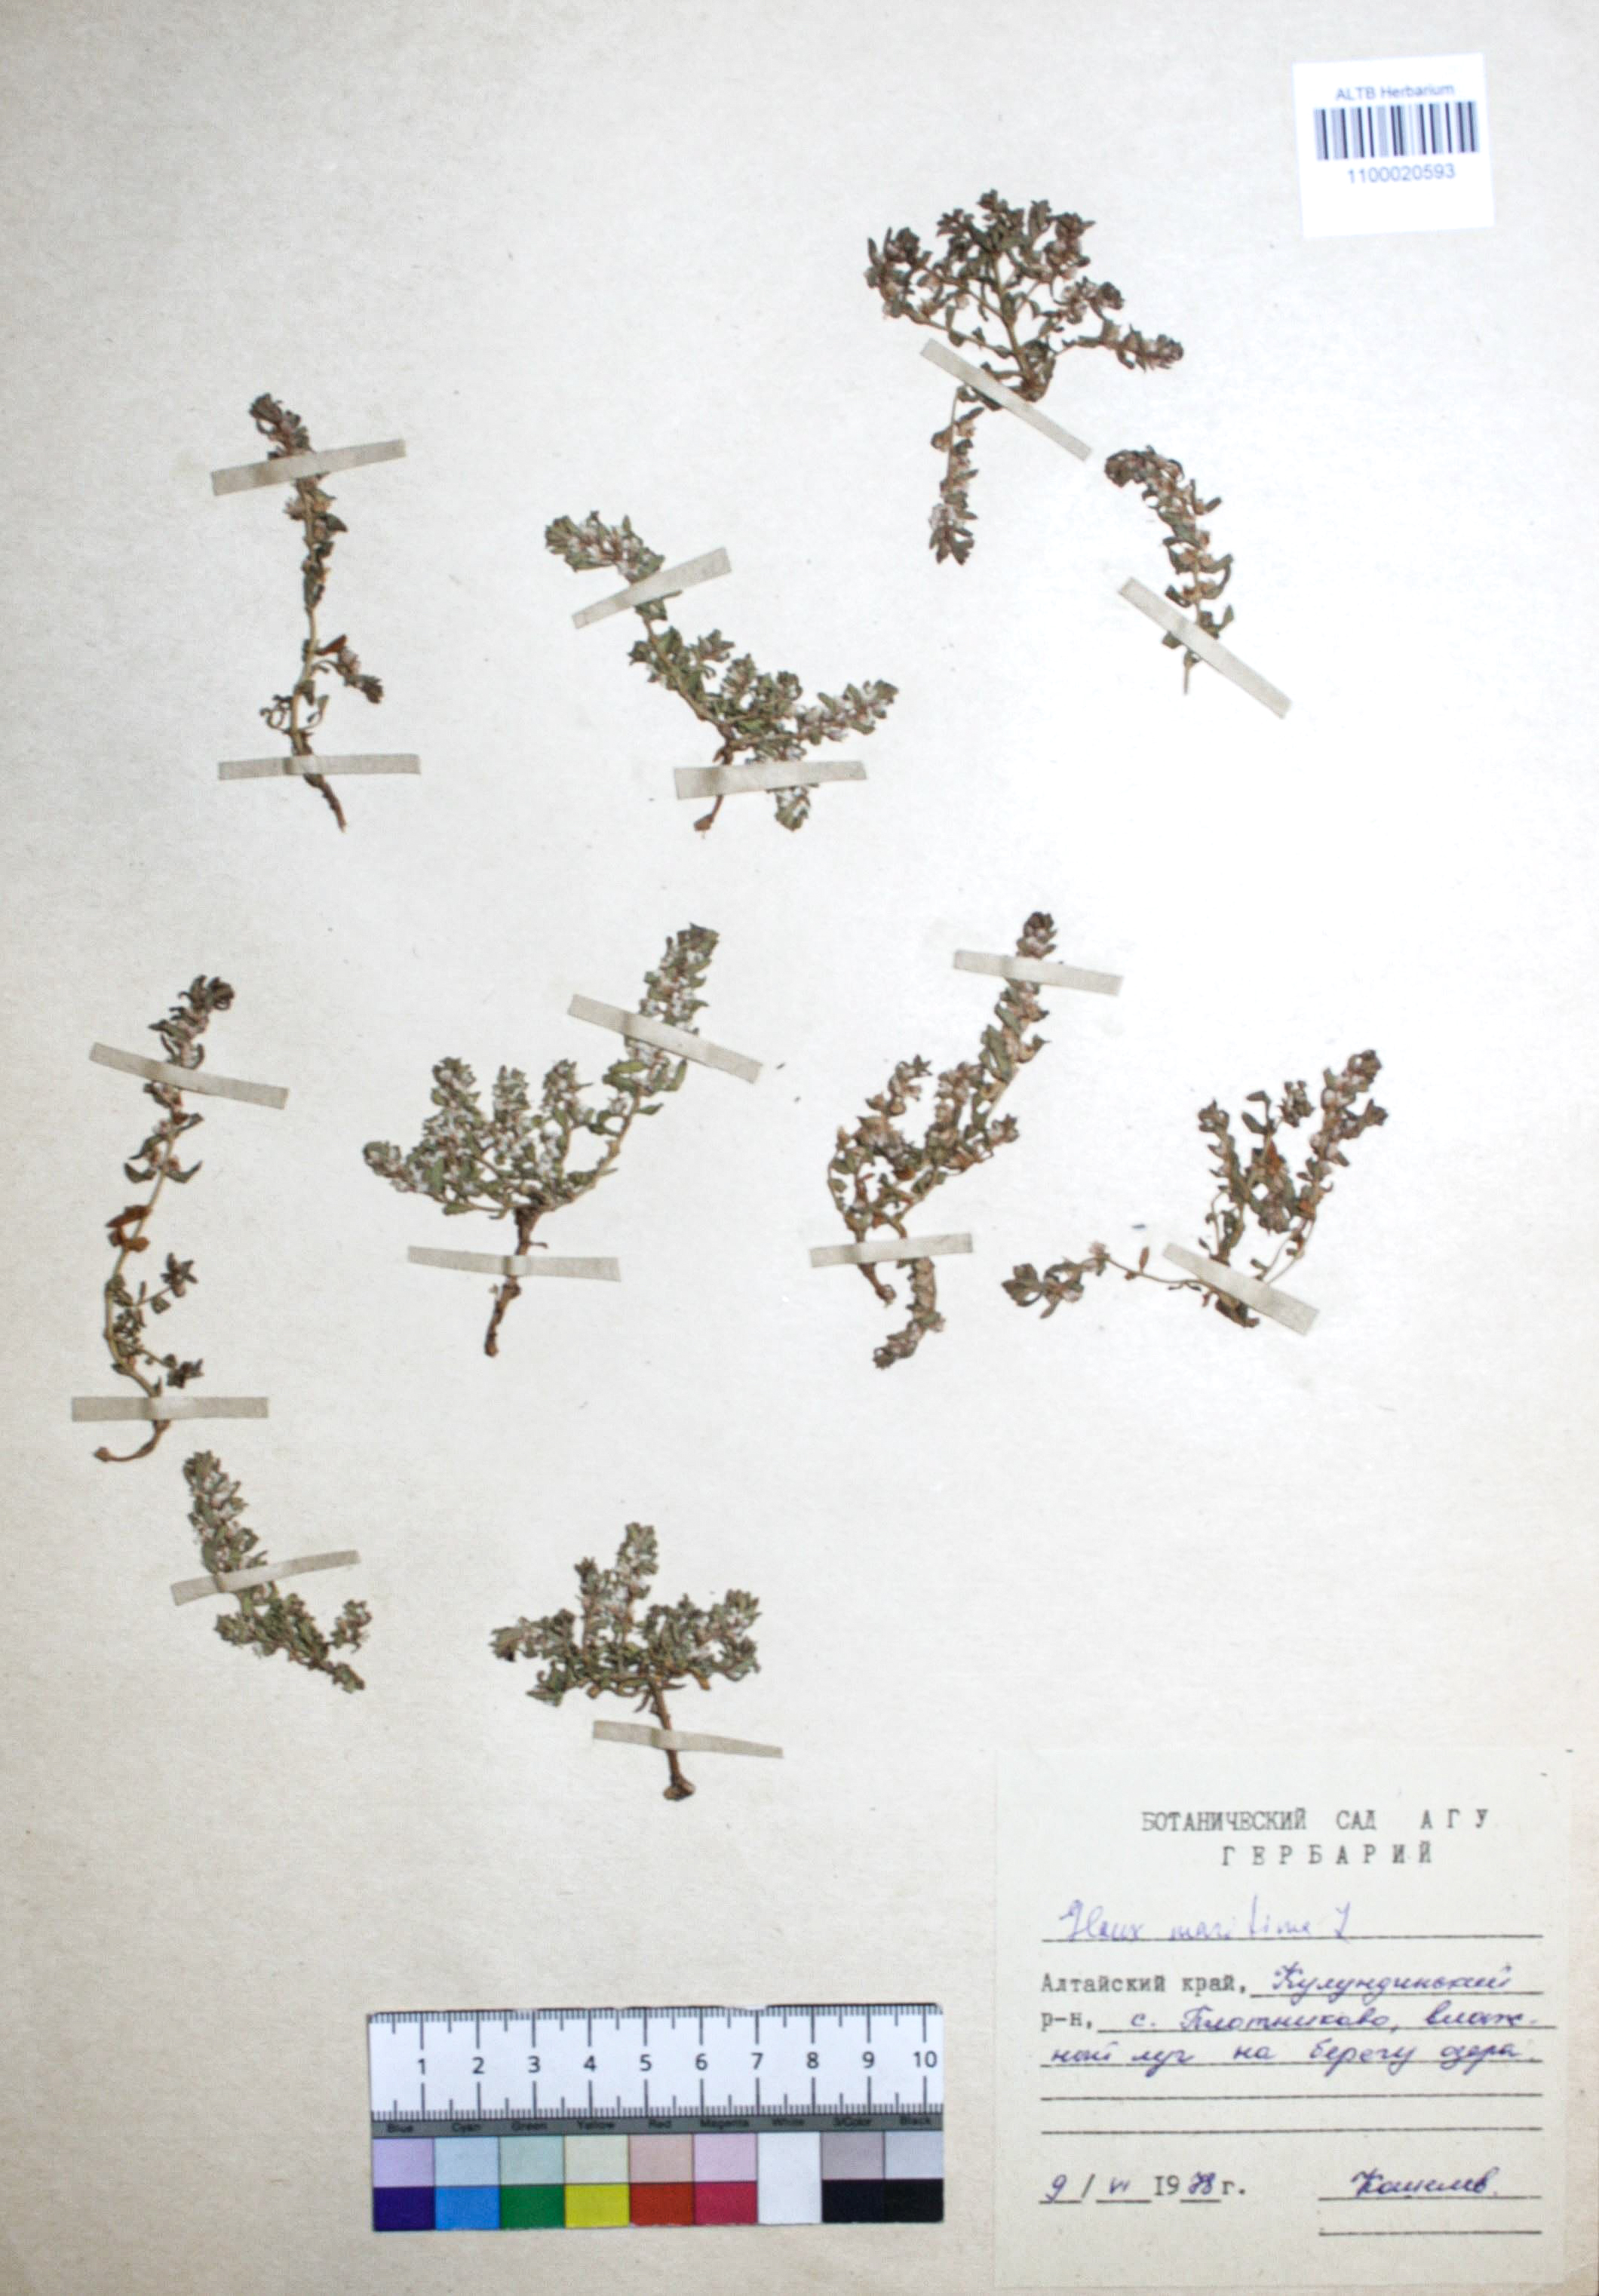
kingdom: Plantae
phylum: Tracheophyta
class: Magnoliopsida
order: Ericales
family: Primulaceae
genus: Lysimachia
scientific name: Lysimachia maritima
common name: Sea milkwort
